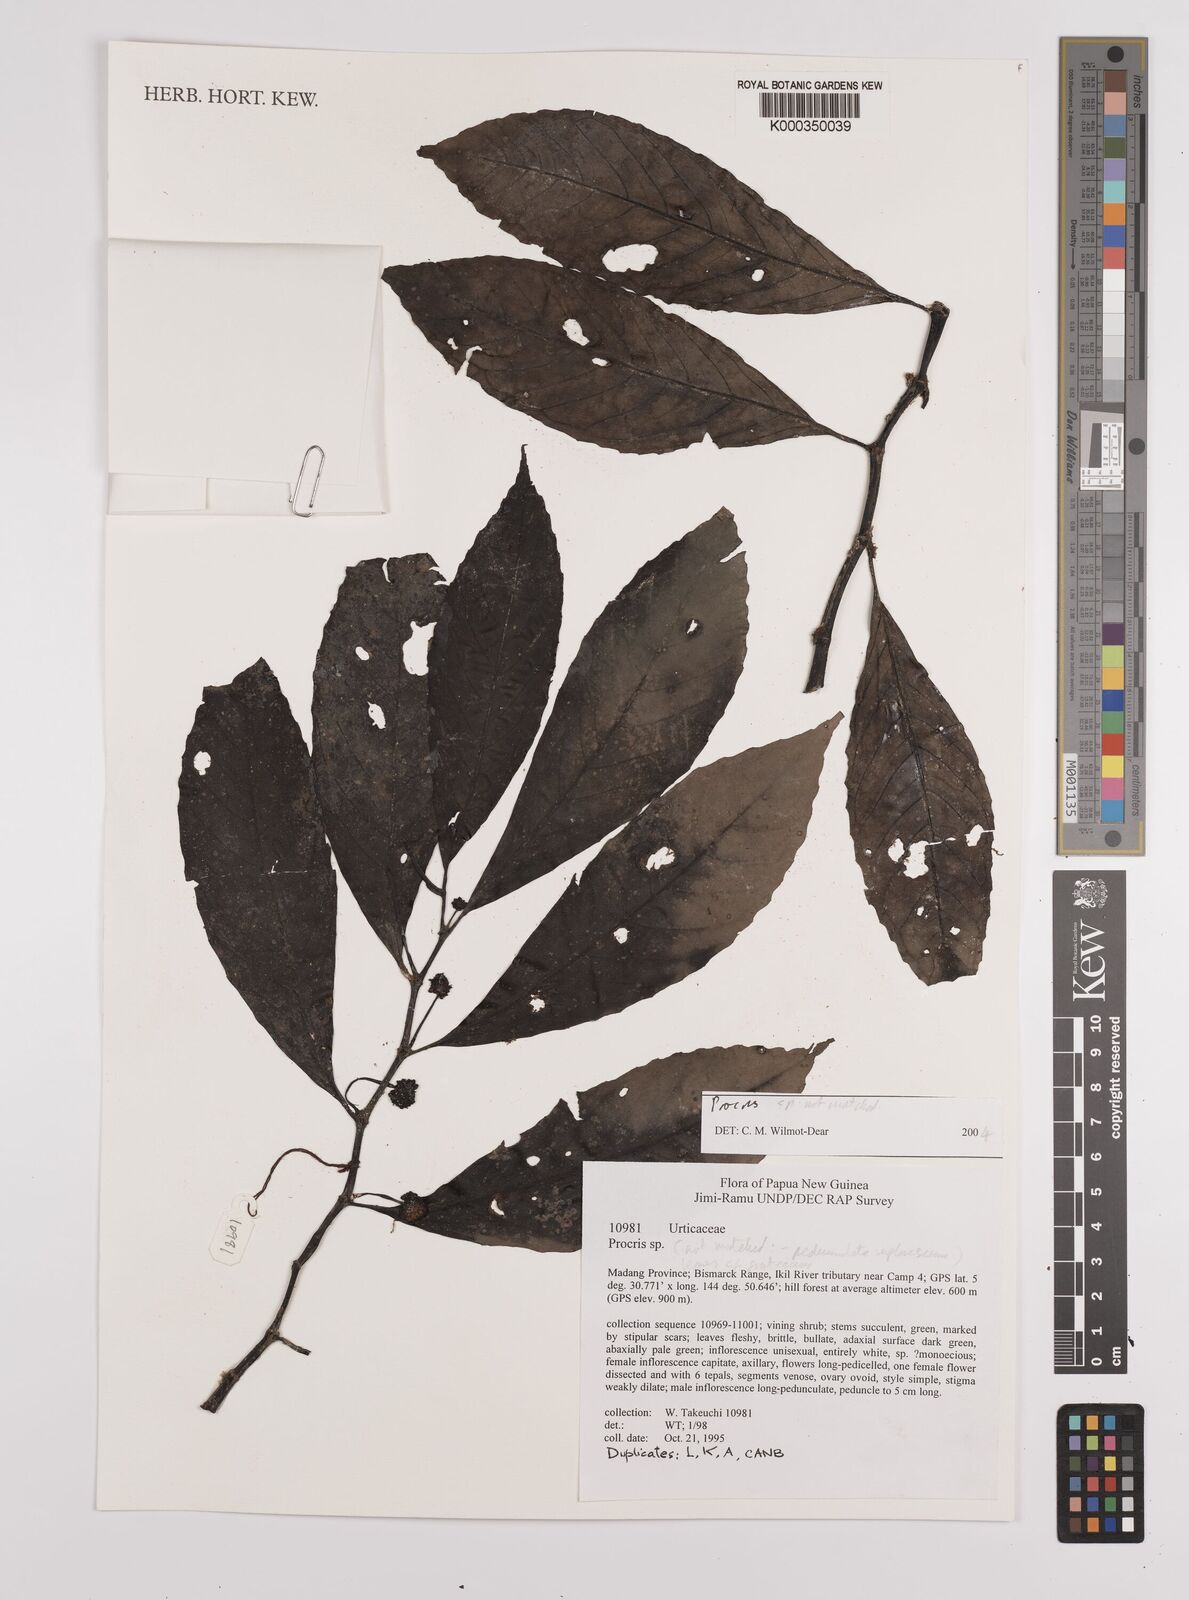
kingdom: Plantae
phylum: Tracheophyta
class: Magnoliopsida
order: Rosales
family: Urticaceae
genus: Procris
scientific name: Procris
